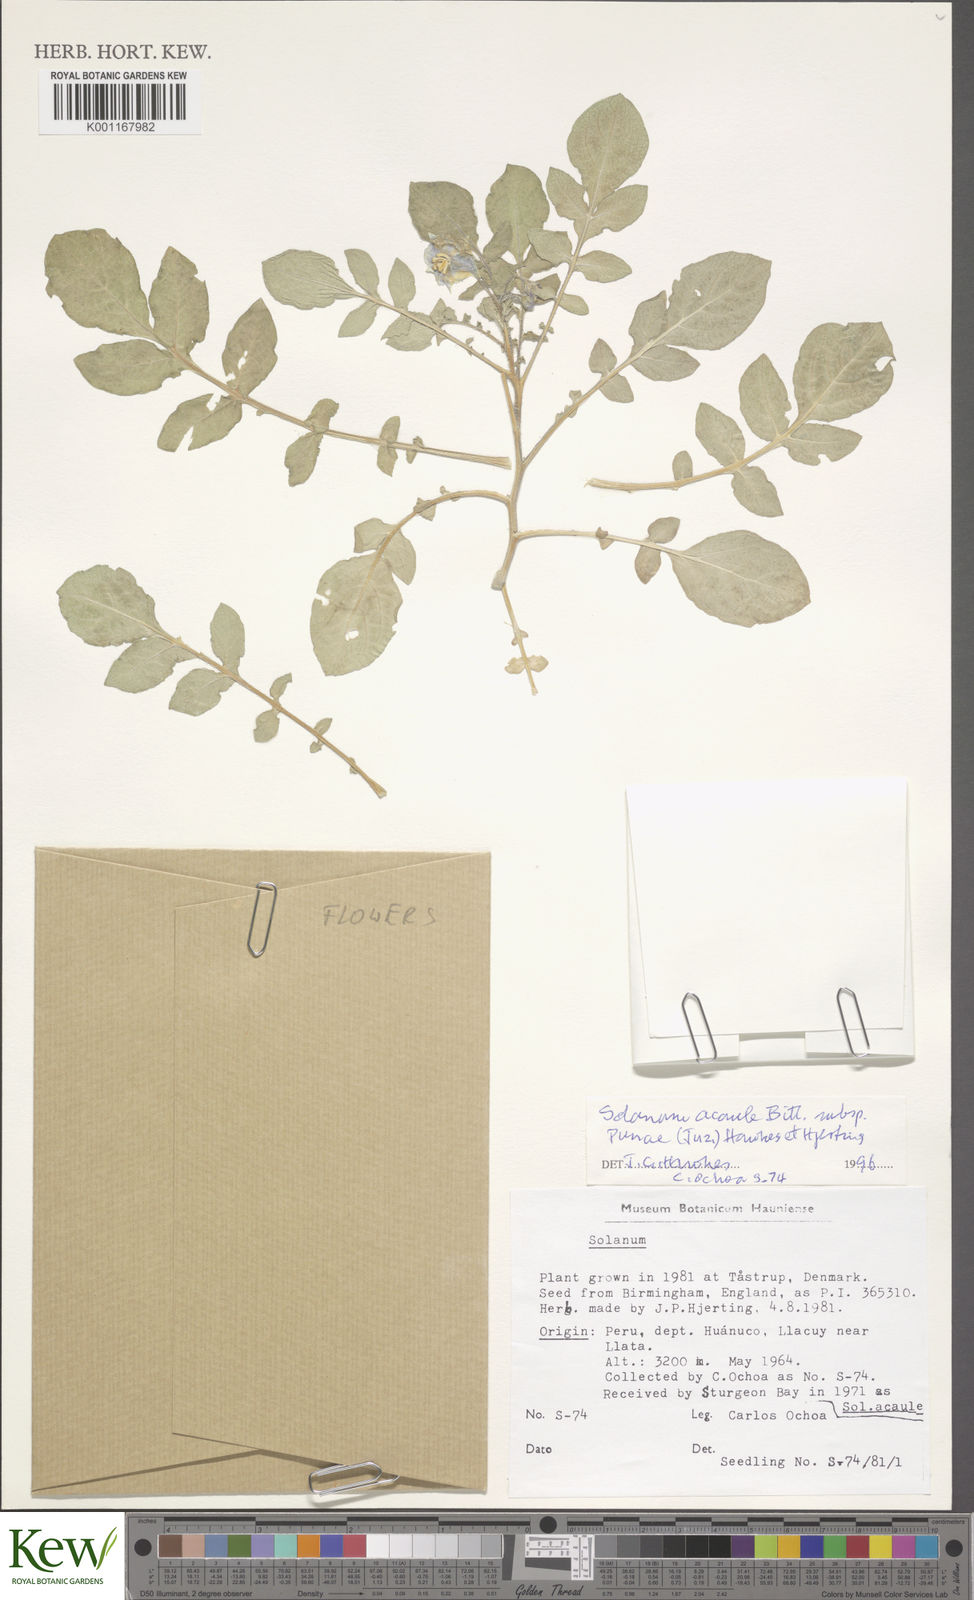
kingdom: Plantae
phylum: Tracheophyta
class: Magnoliopsida
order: Solanales
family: Solanaceae
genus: Solanum
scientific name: Solanum acaule
